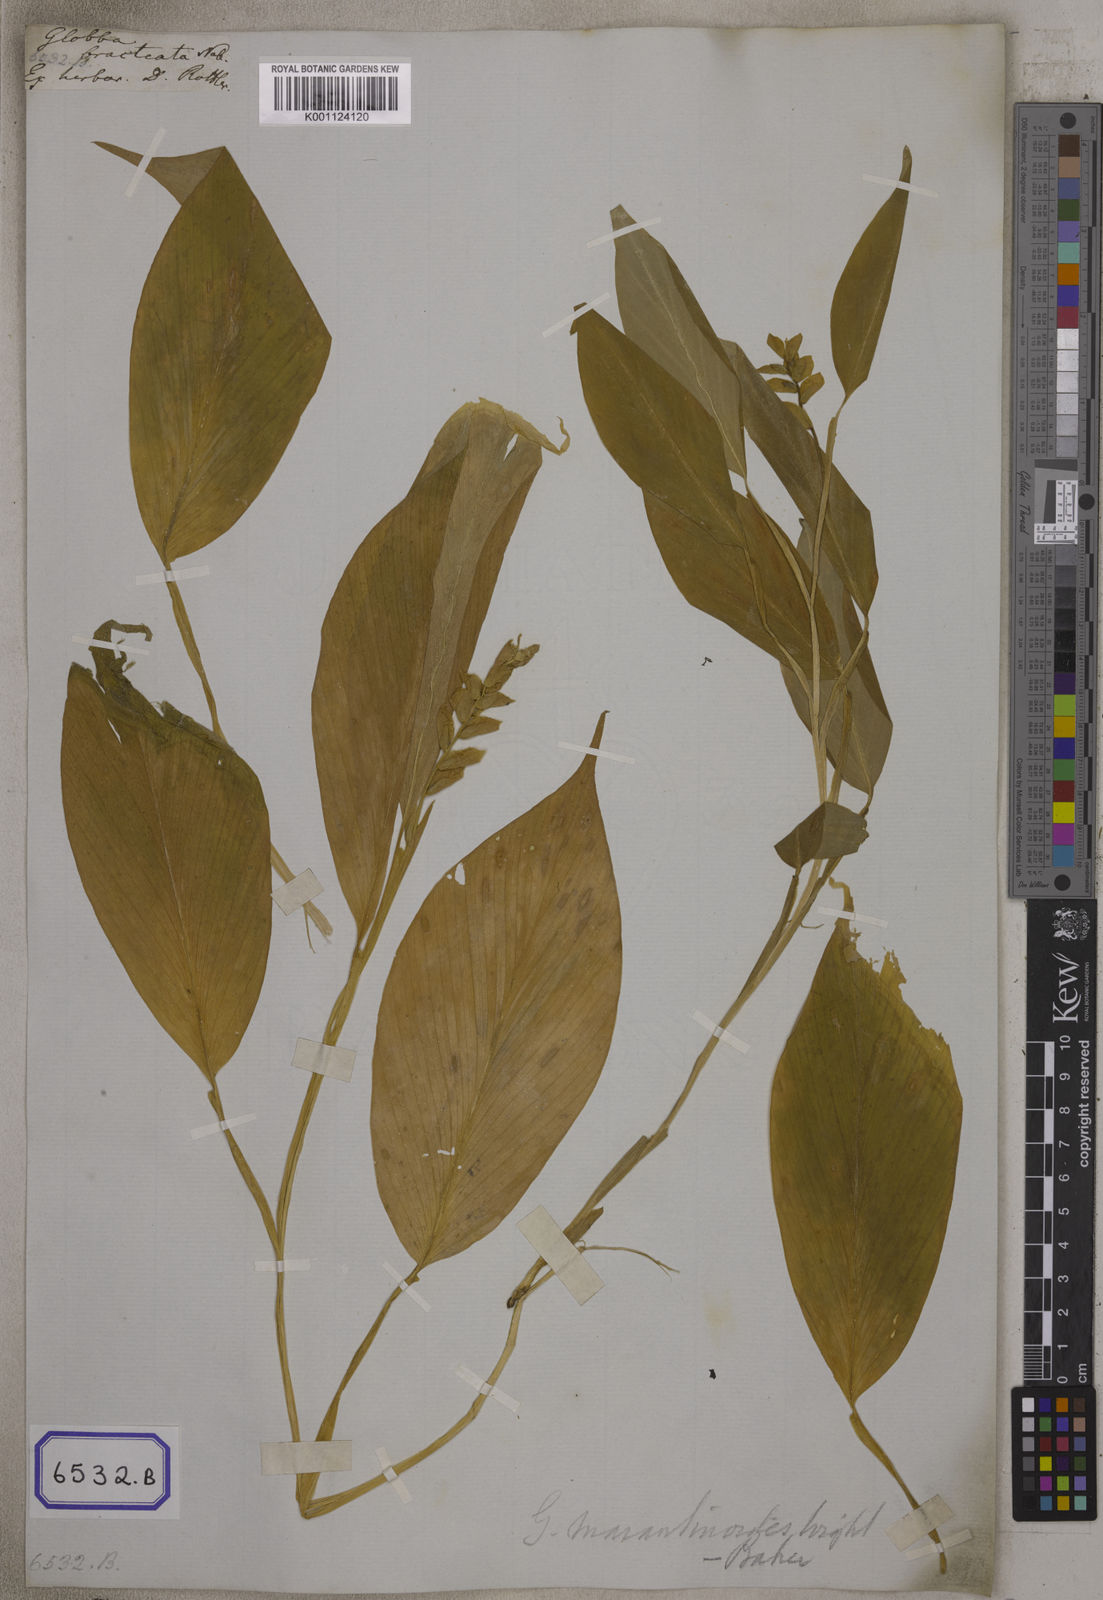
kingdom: Plantae
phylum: Tracheophyta
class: Liliopsida
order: Zingiberales
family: Zingiberaceae
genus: Globba
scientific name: Globba marantina
